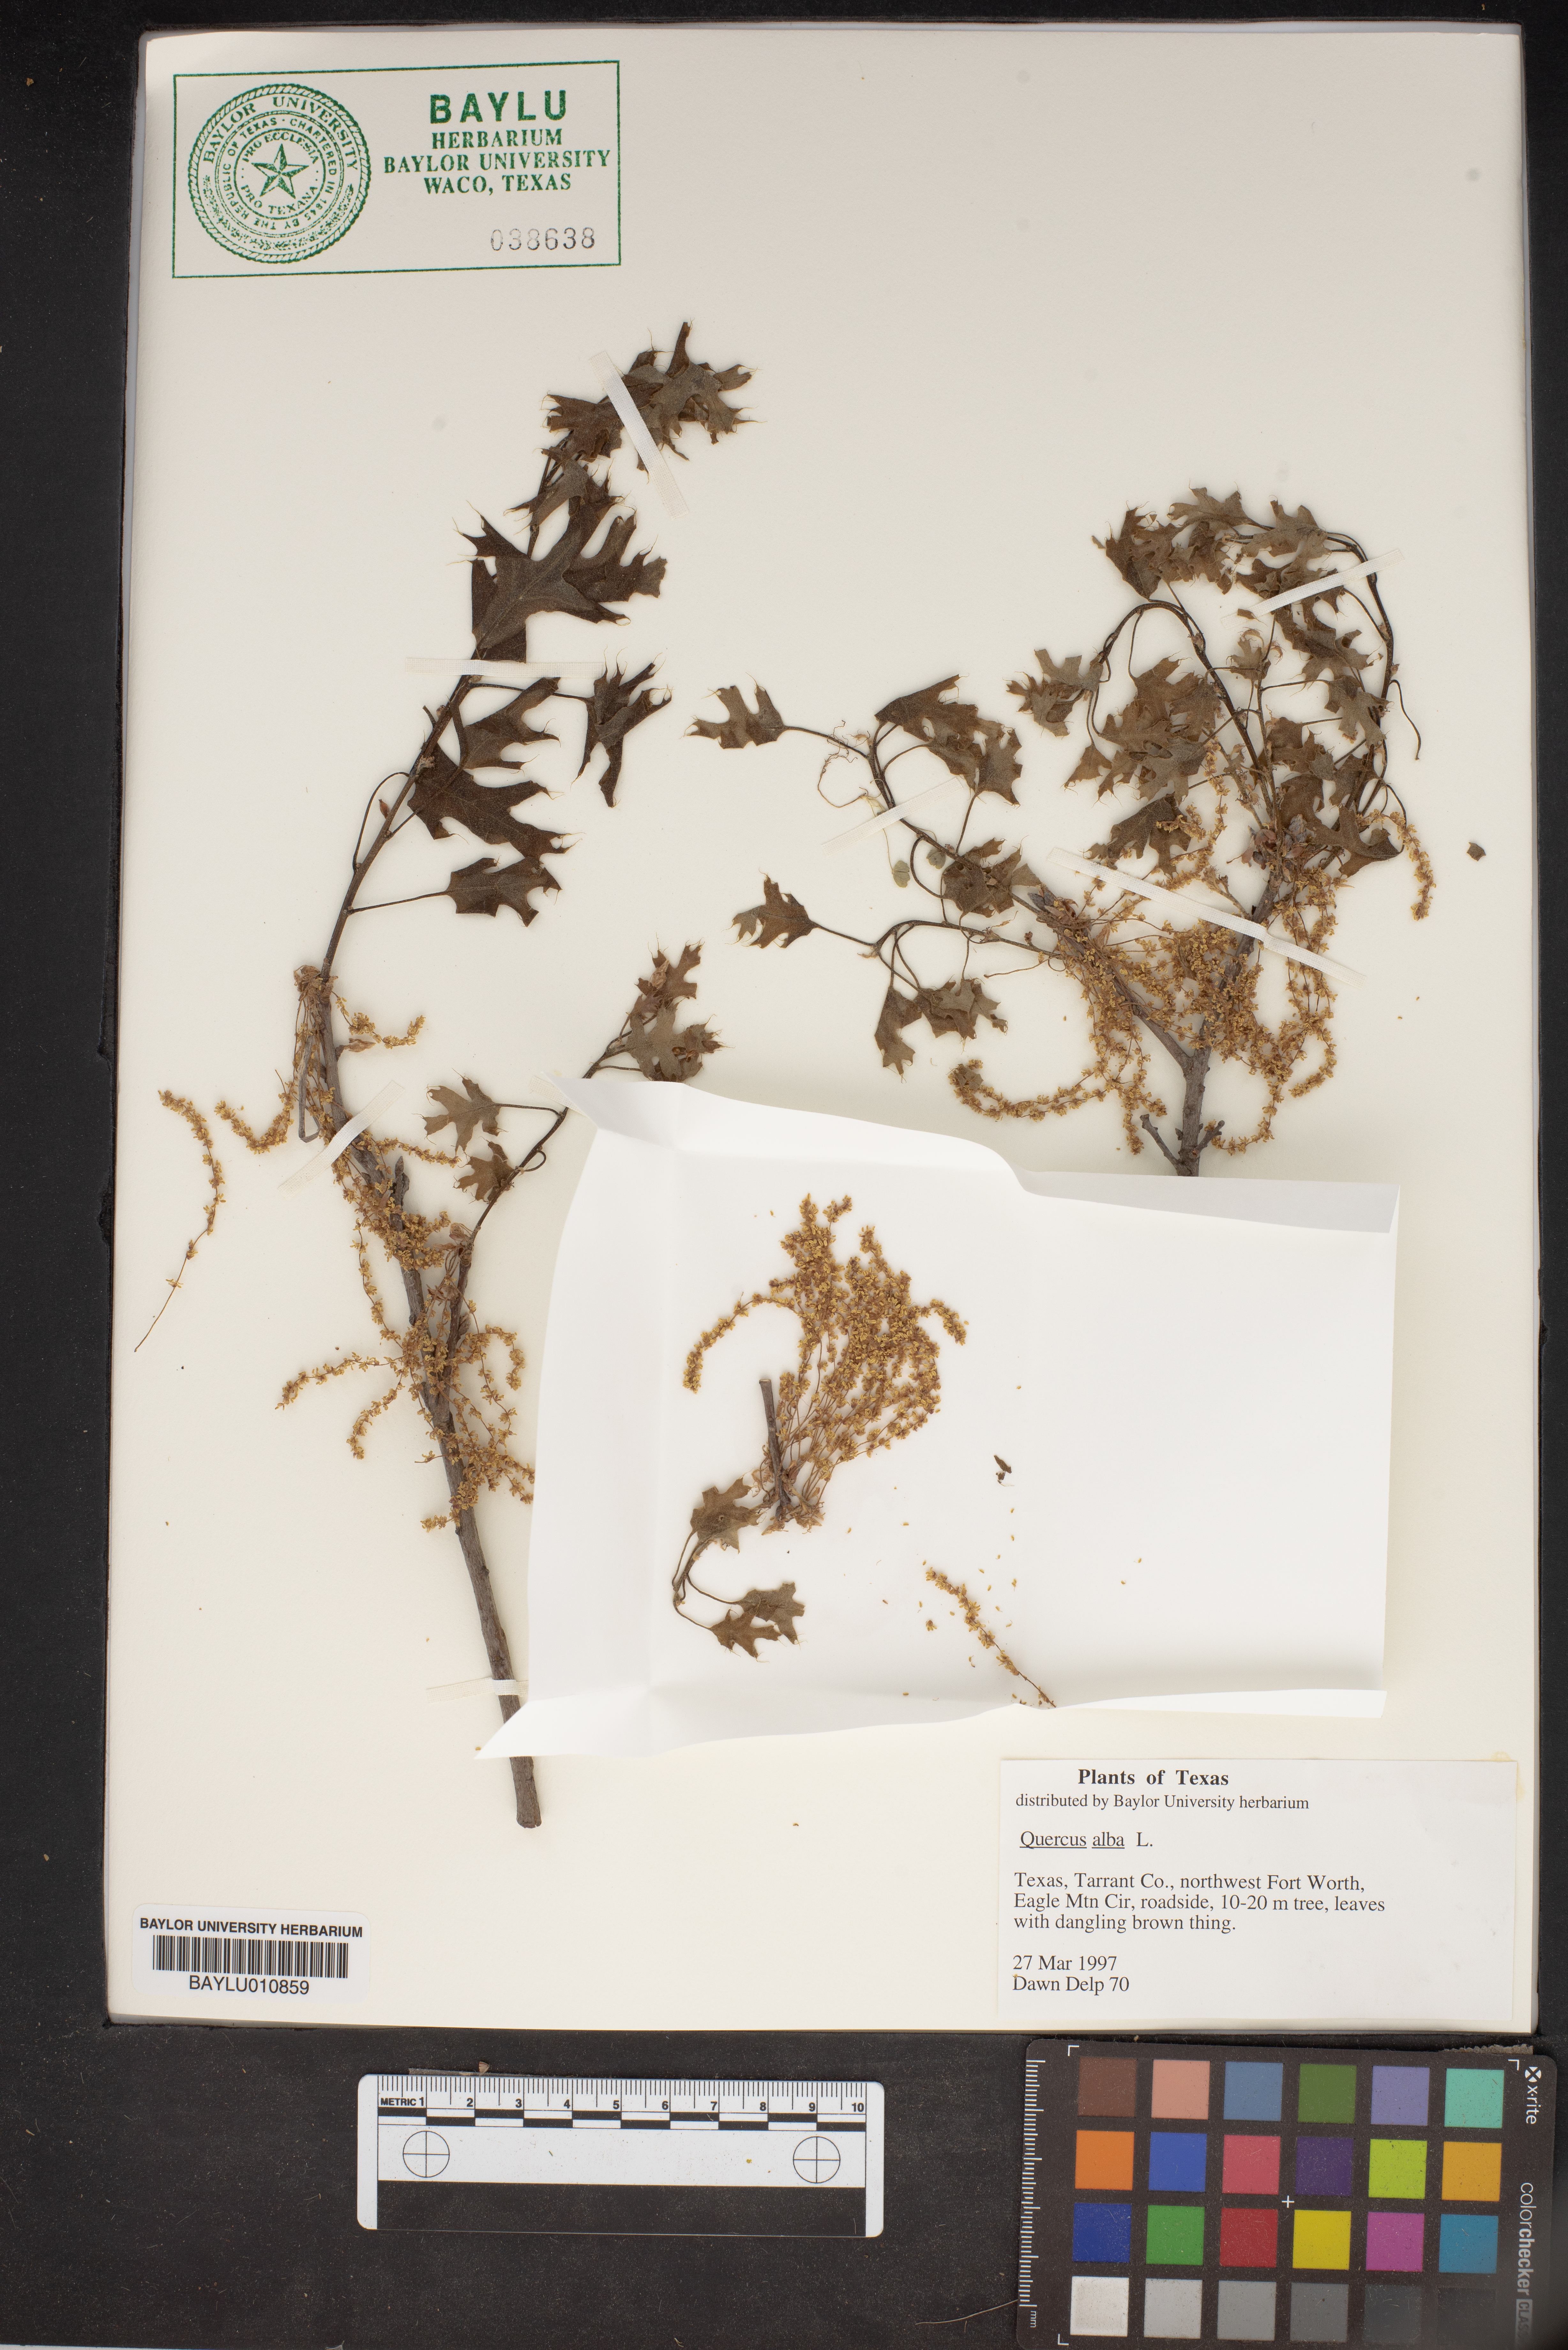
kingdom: Plantae
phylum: Tracheophyta
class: Magnoliopsida
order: Fagales
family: Fagaceae
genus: Quercus
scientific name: Quercus alba
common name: White oak
